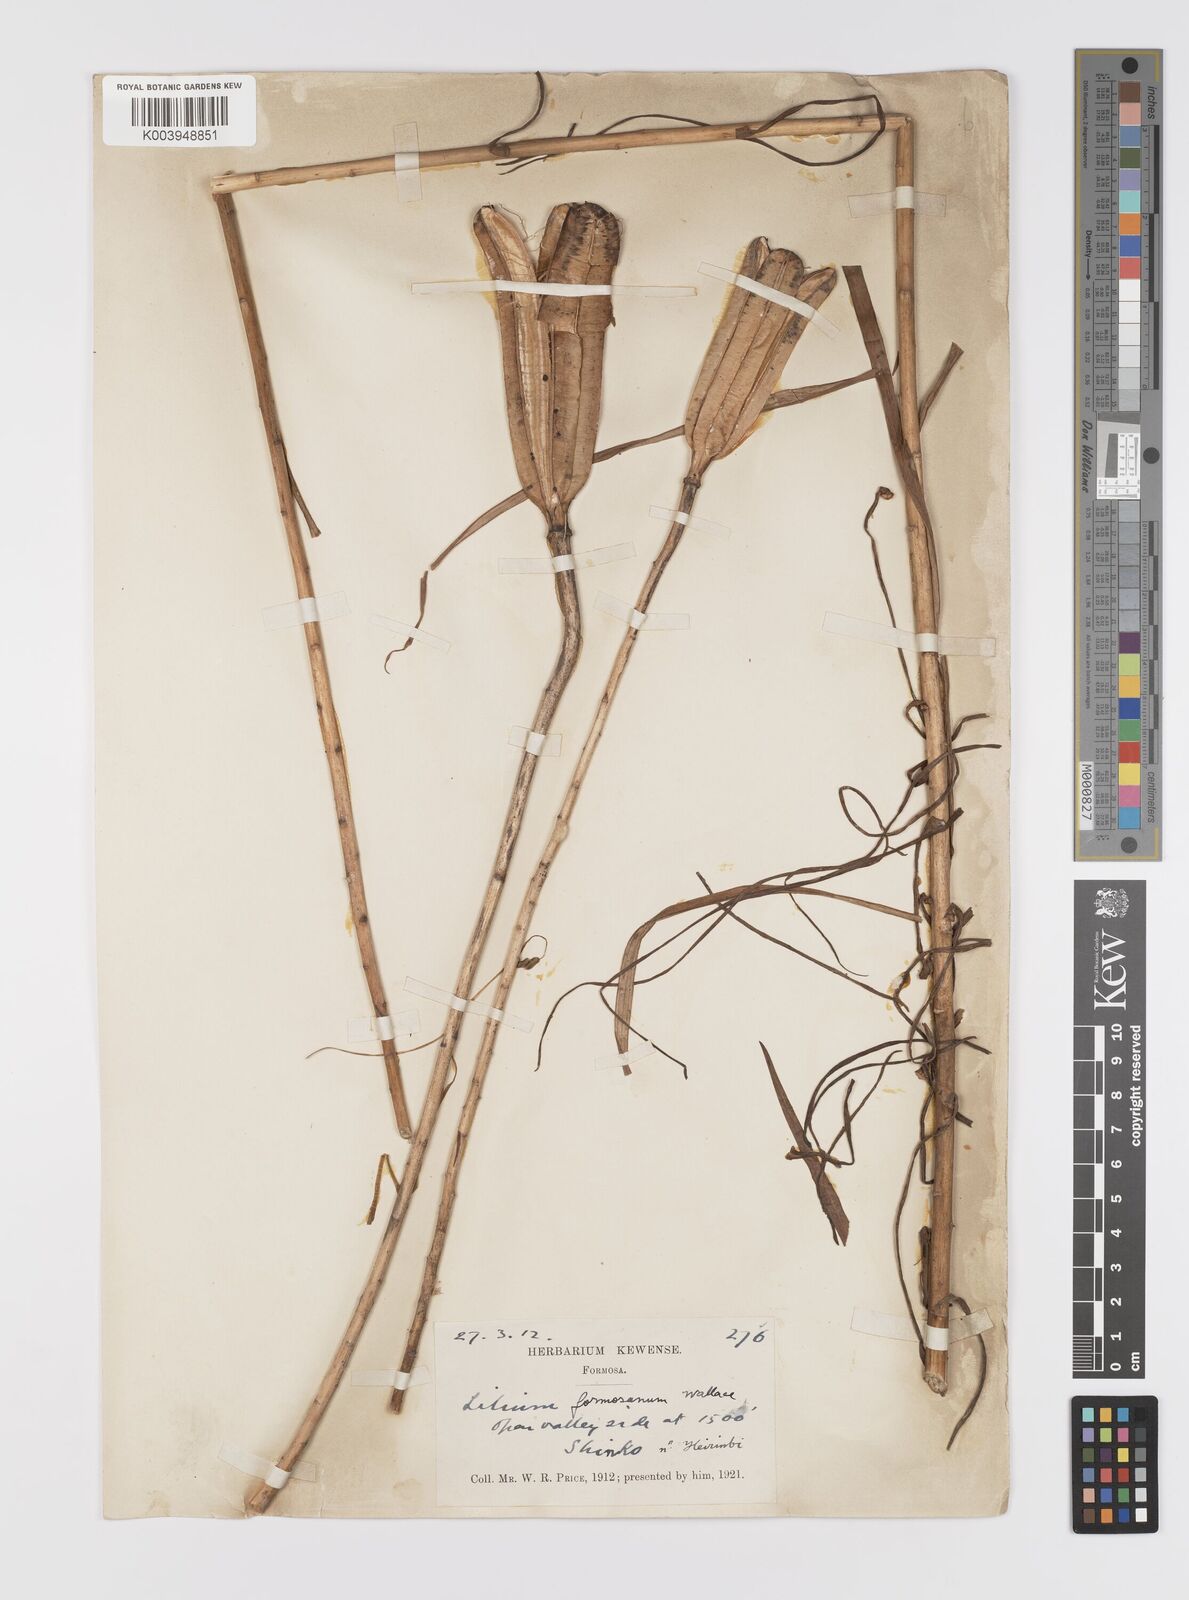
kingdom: Plantae
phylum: Tracheophyta
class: Liliopsida
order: Liliales
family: Liliaceae
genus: Lilium
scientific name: Lilium formosanum
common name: Formosa lily
